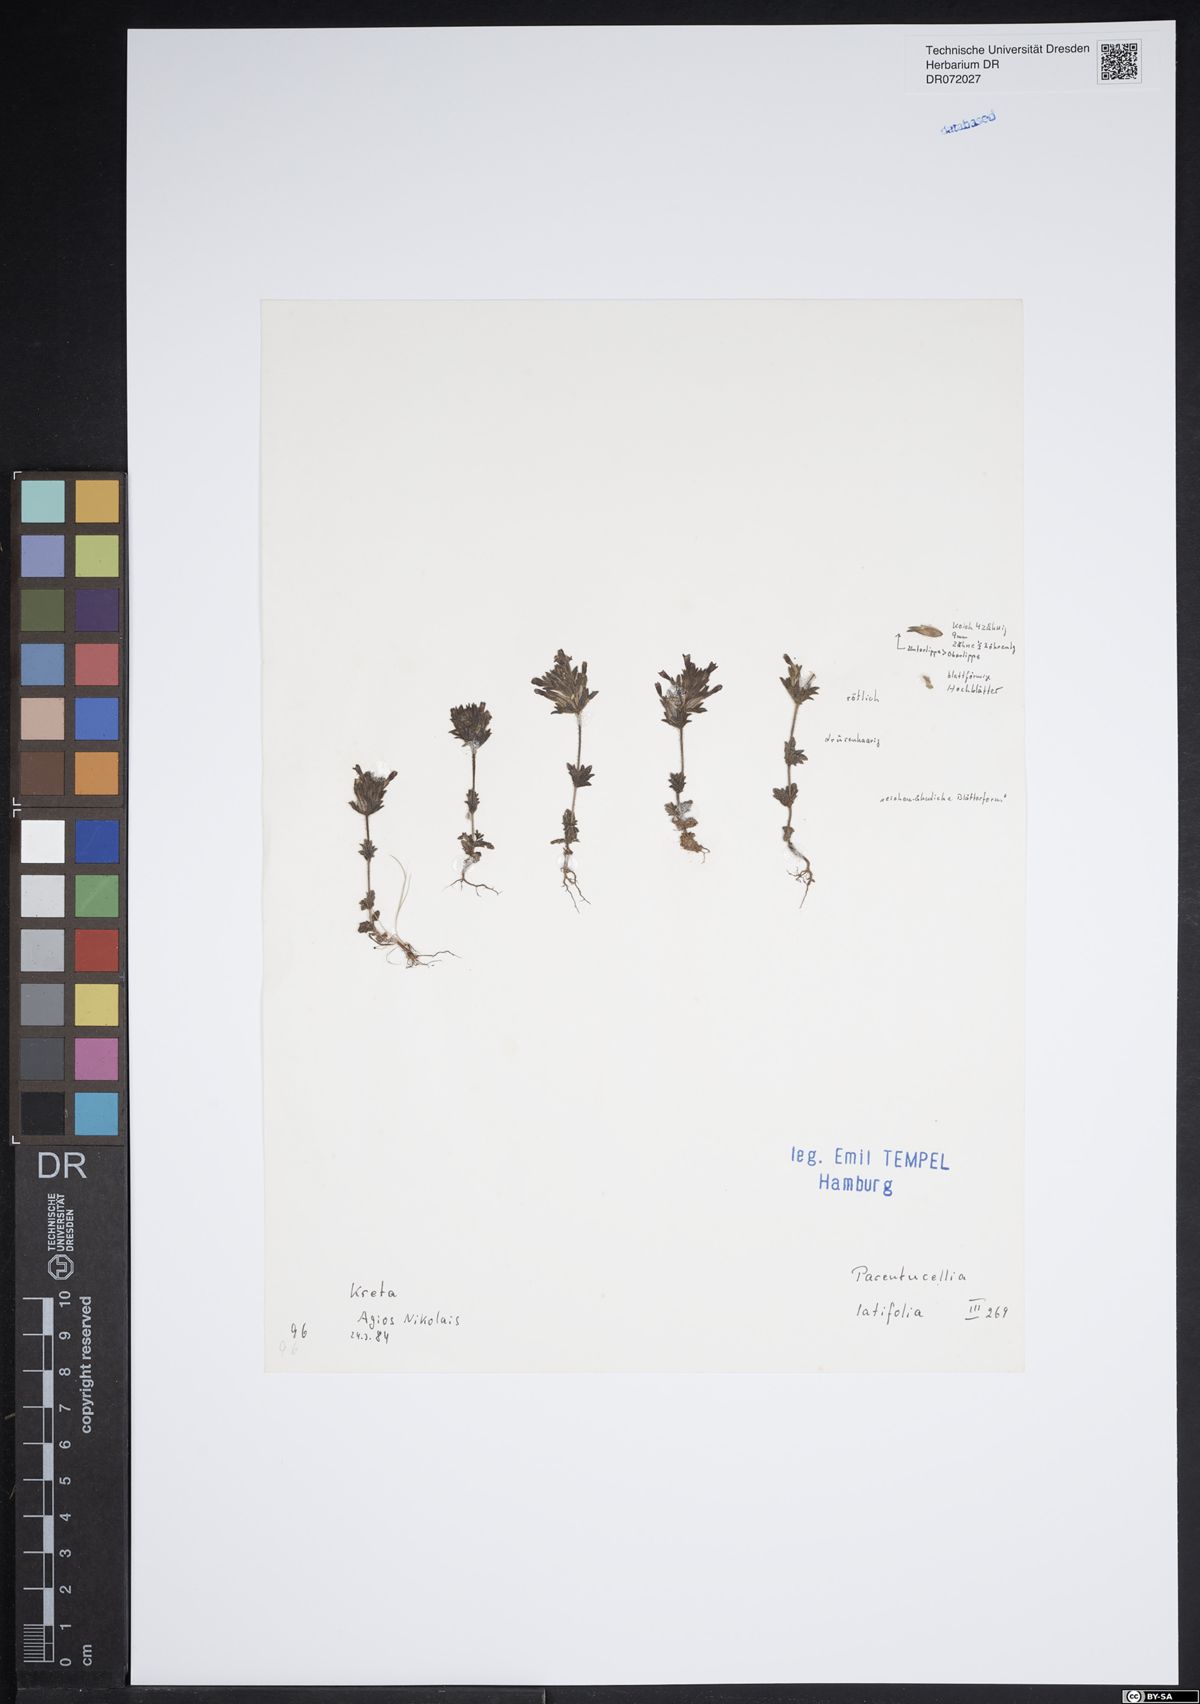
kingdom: Plantae
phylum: Tracheophyta
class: Magnoliopsida
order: Lamiales
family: Orobanchaceae
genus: Parentucellia
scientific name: Parentucellia latifolia
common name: Broadleaf glandweed
